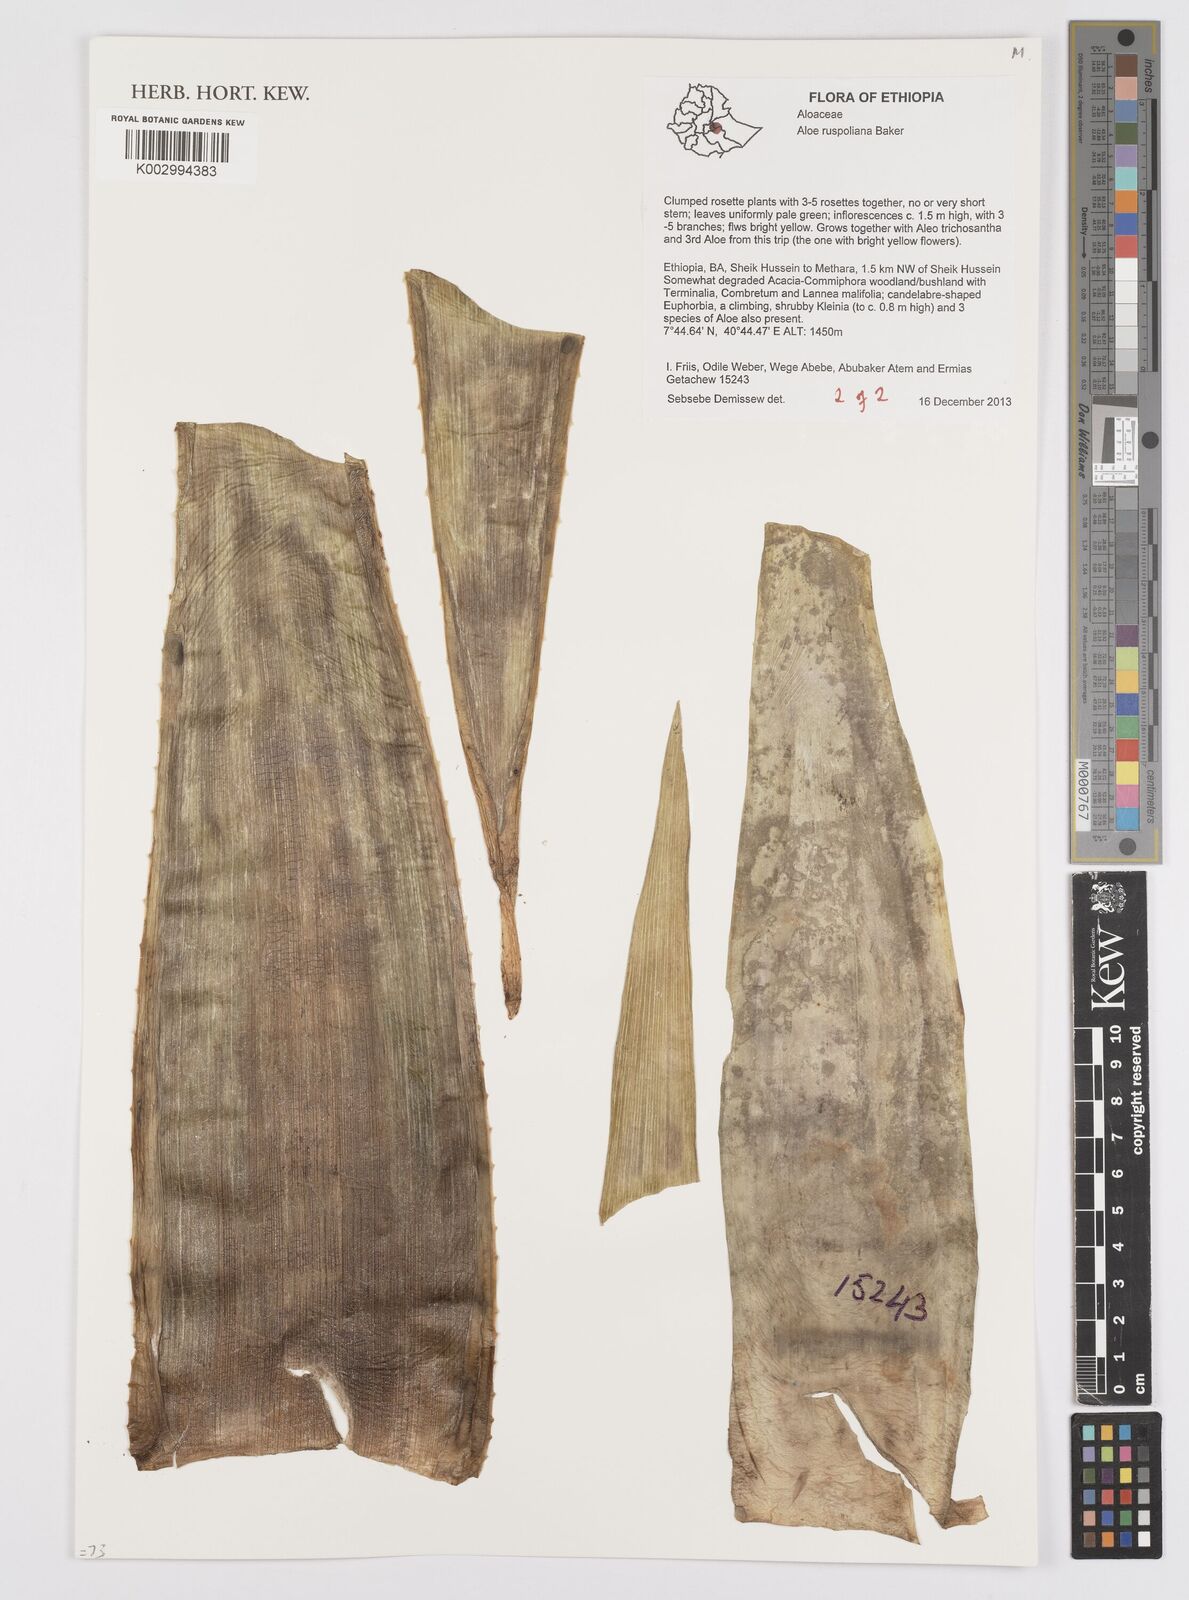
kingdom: Plantae
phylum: Tracheophyta
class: Liliopsida
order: Asparagales
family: Asphodelaceae
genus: Aloe
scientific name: Aloe ruspoliana
